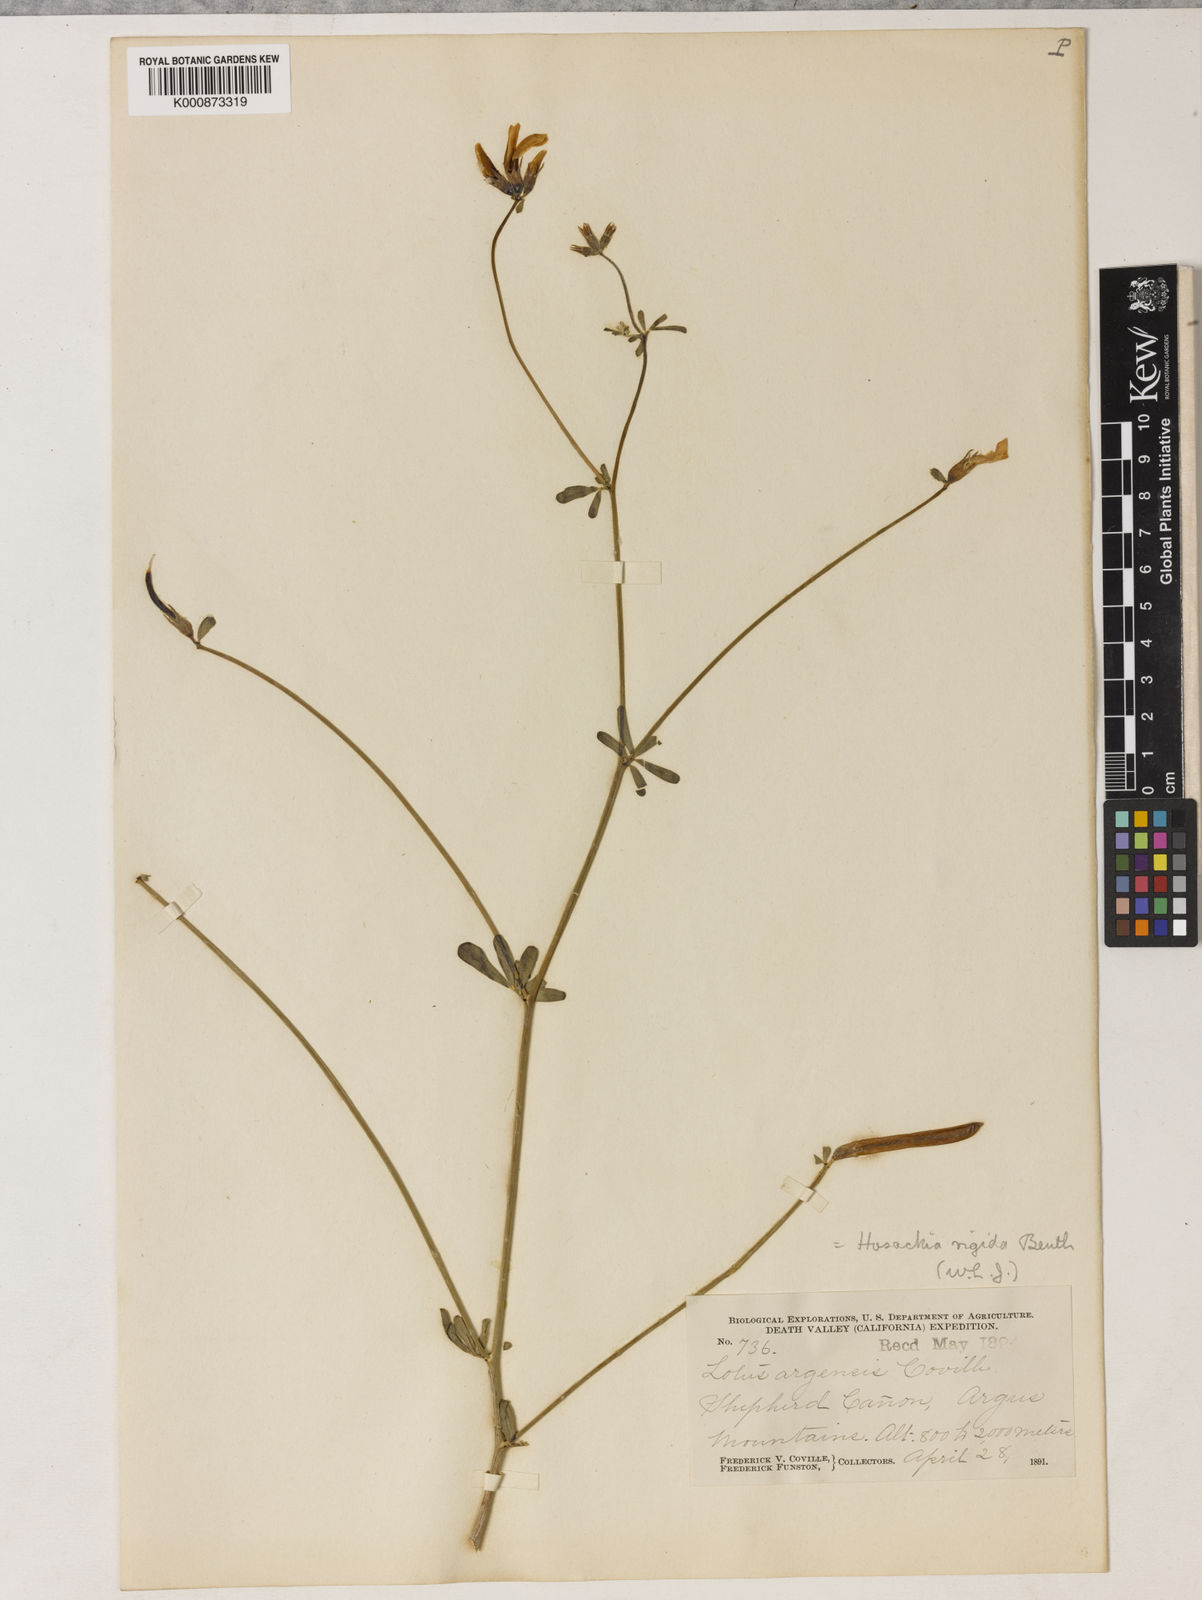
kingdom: Plantae
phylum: Tracheophyta
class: Magnoliopsida
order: Fabales
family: Fabaceae
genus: Acmispon
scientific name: Acmispon rigidus
